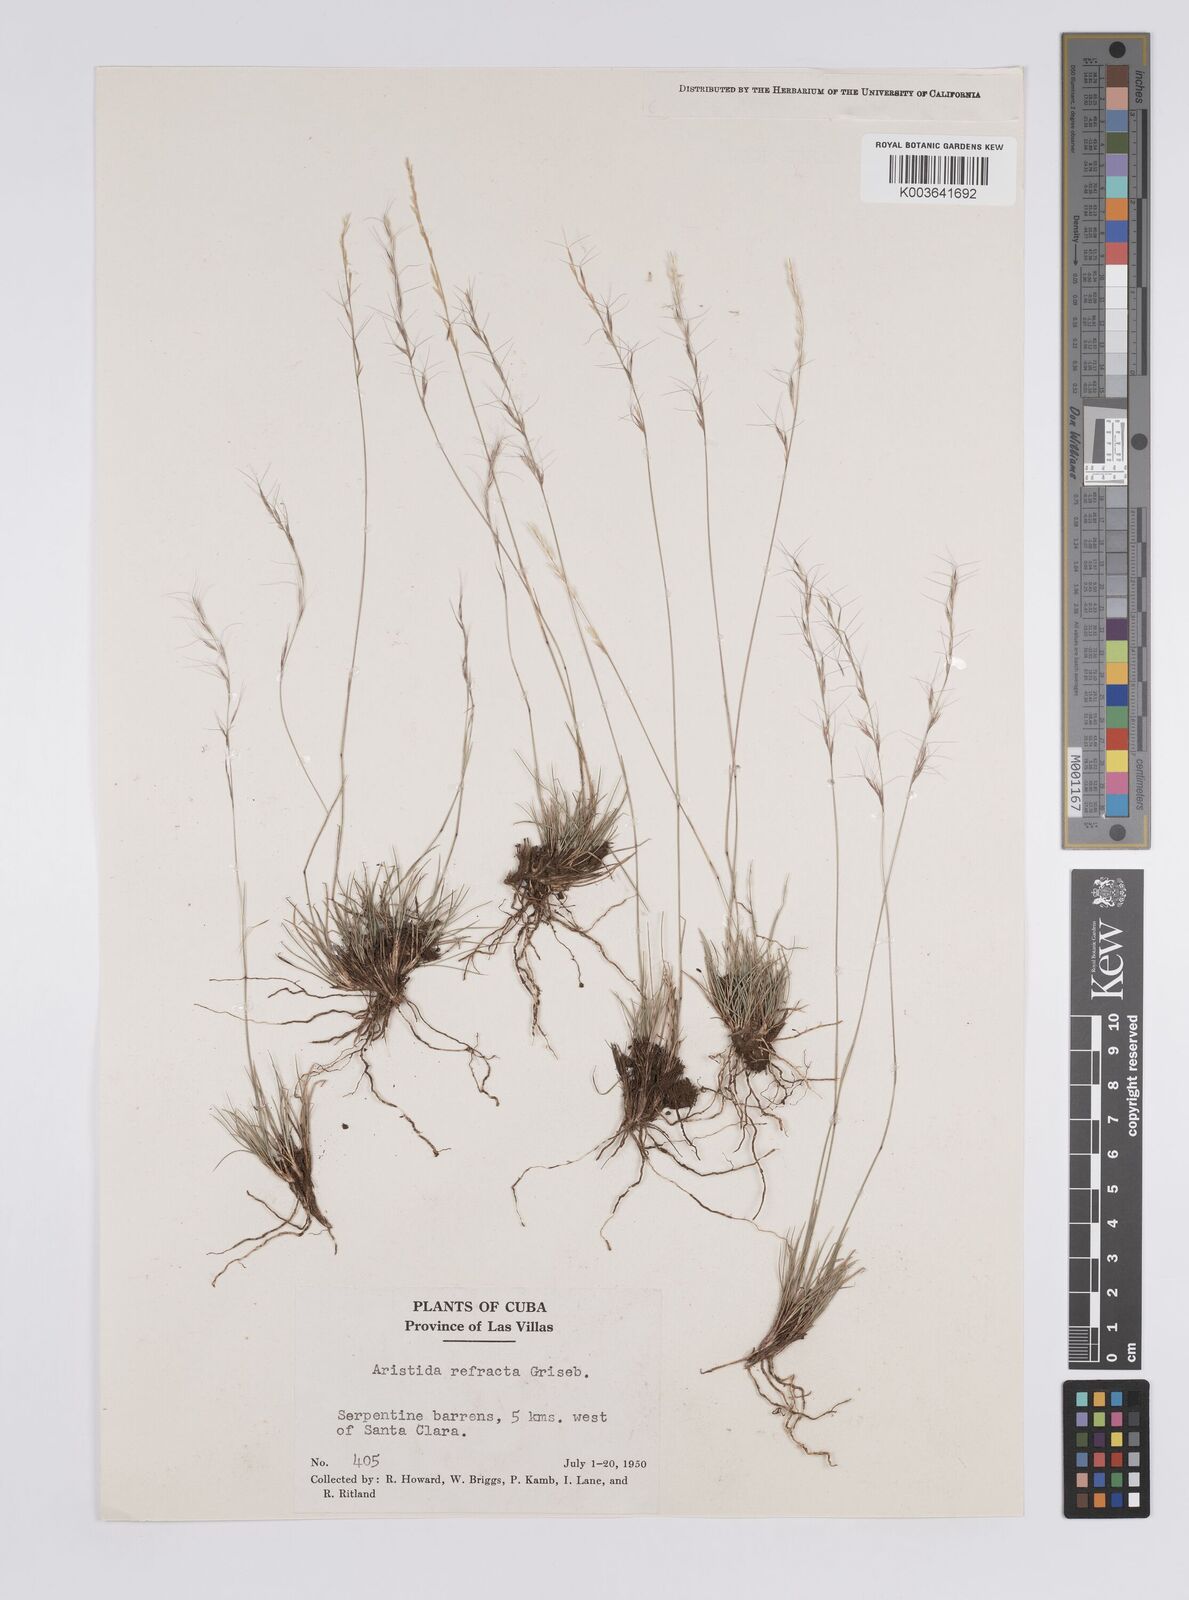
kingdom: Plantae
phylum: Tracheophyta
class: Liliopsida
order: Poales
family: Poaceae
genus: Aristida
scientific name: Aristida refracta
